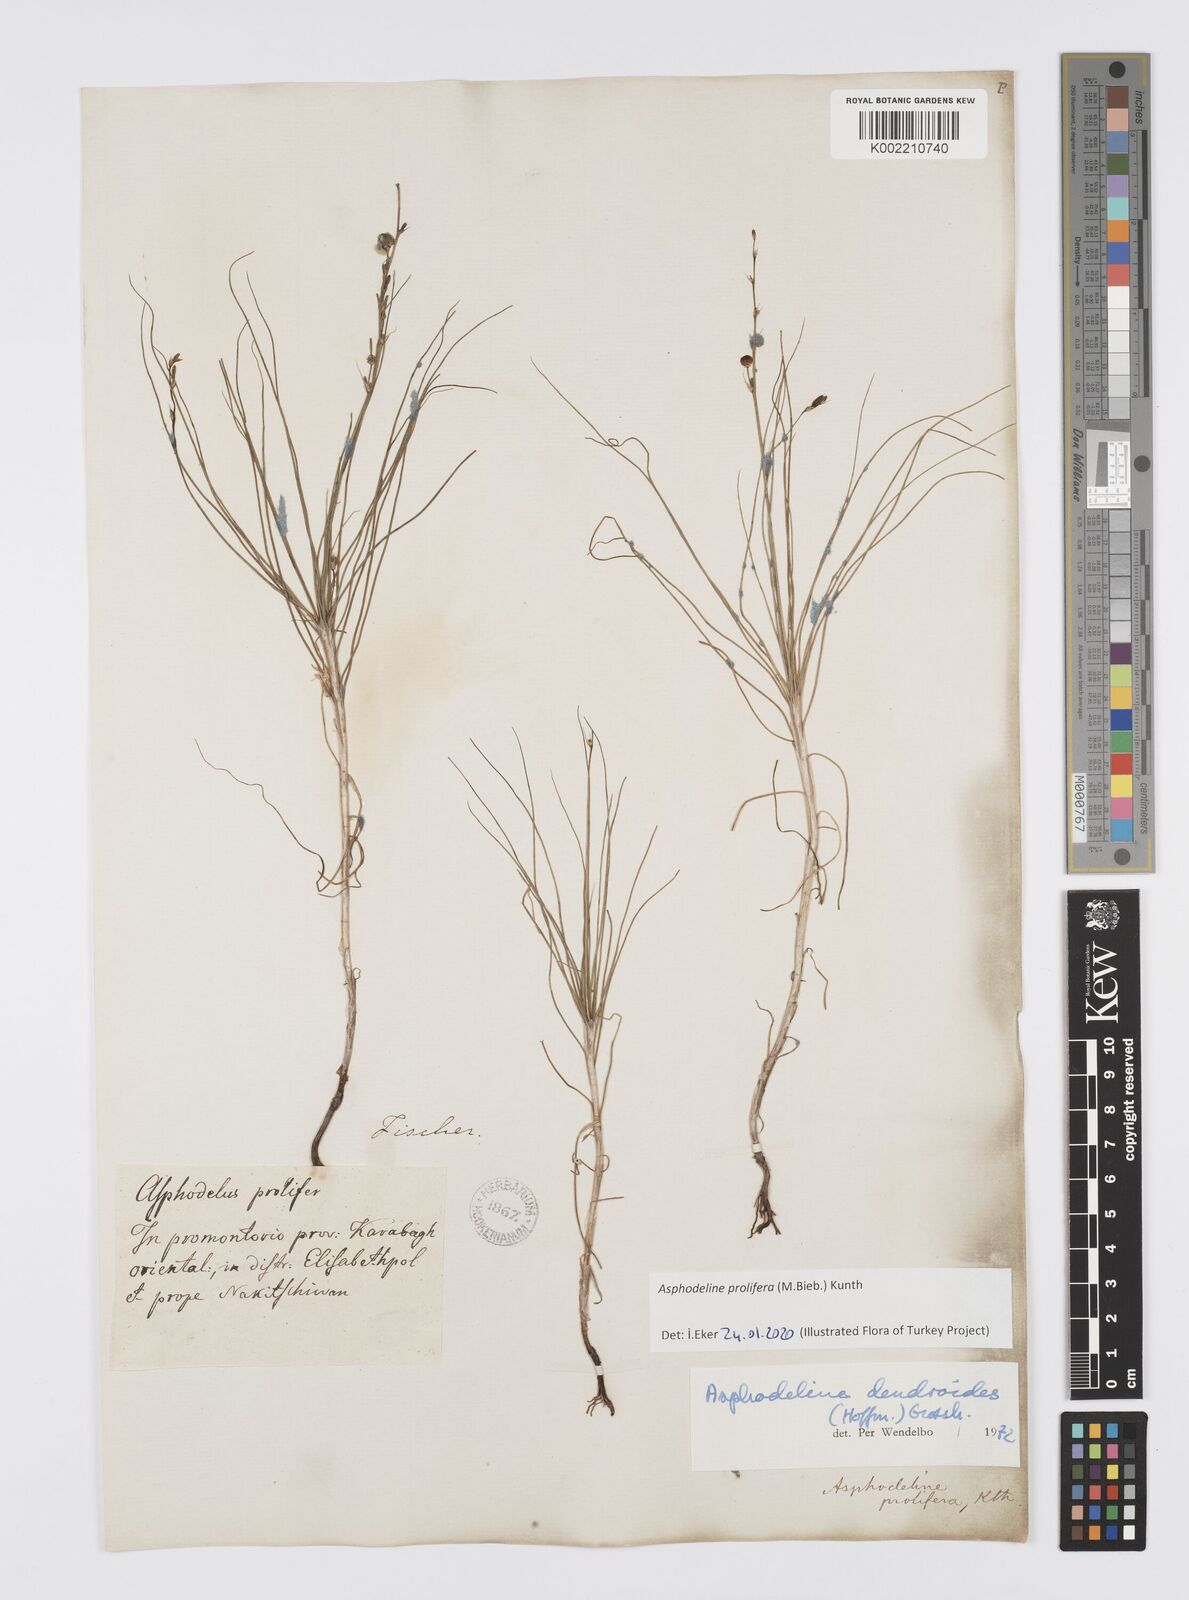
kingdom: Plantae
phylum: Tracheophyta
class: Liliopsida
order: Asparagales
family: Asphodelaceae
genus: Asphodeline
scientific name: Asphodeline prolifera
